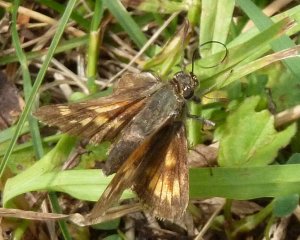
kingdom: Animalia
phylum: Arthropoda
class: Insecta
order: Lepidoptera
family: Hesperiidae
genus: Polites
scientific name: Polites
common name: Long Dash Skipper
